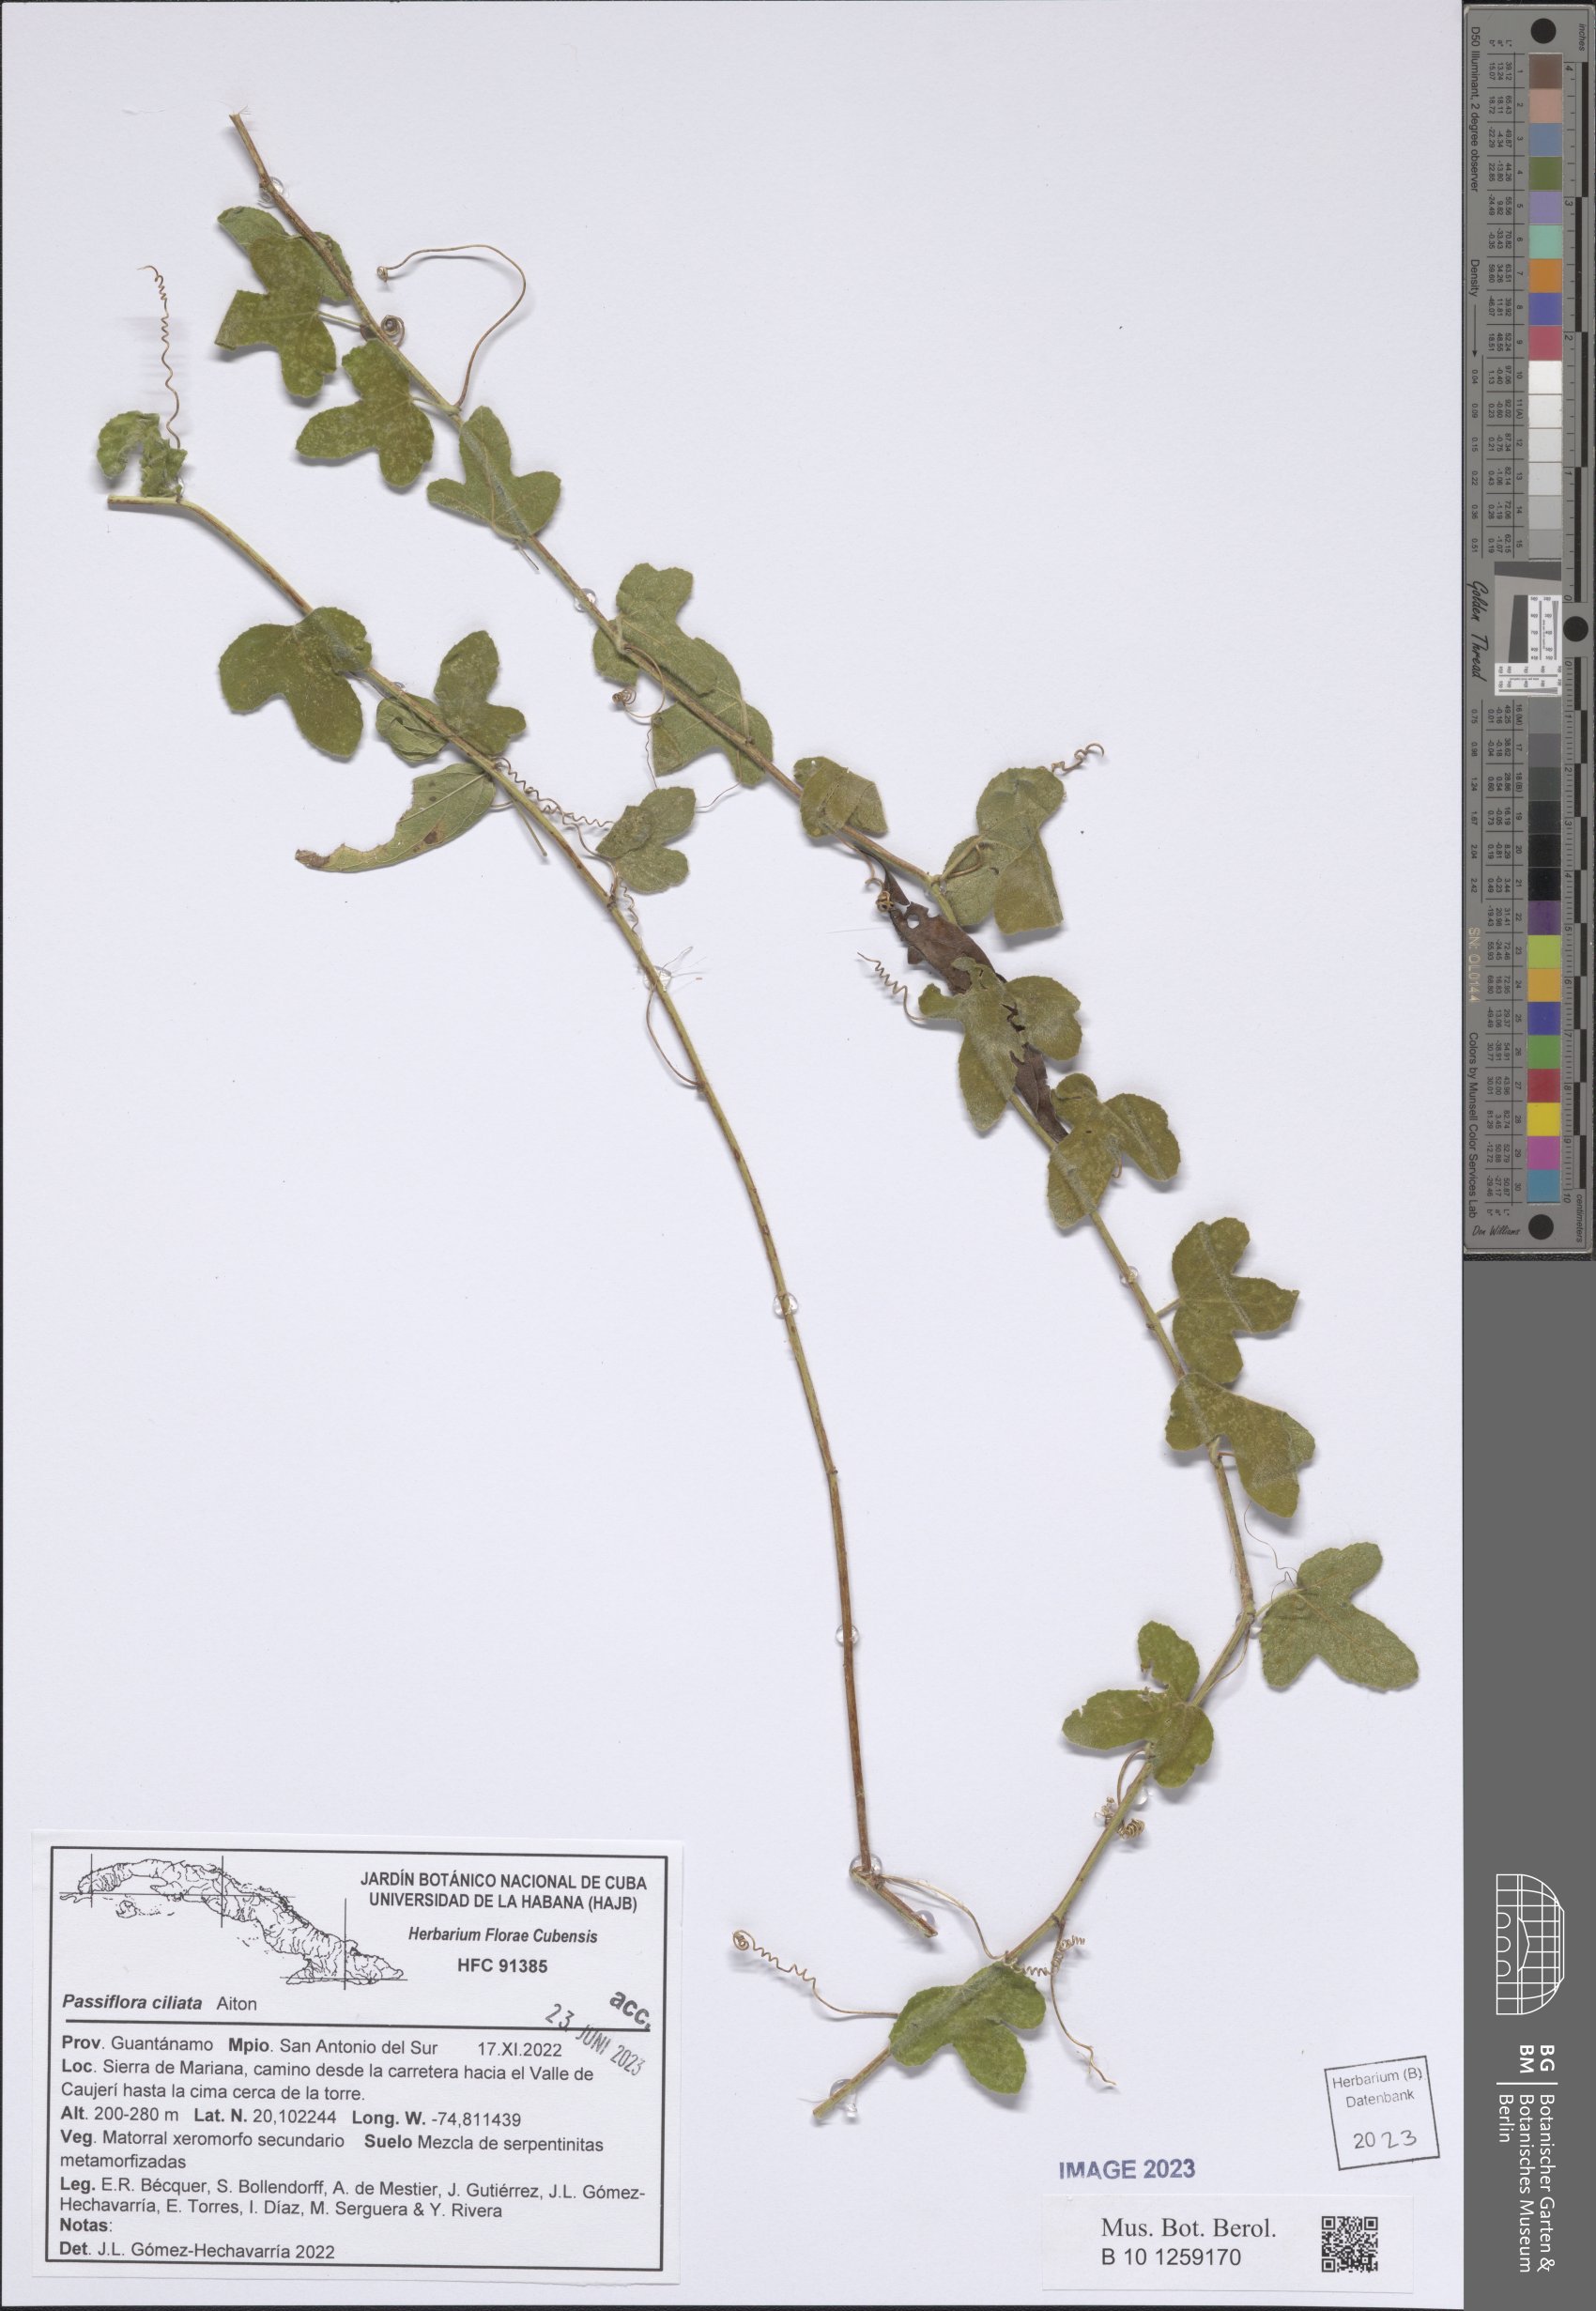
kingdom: Plantae
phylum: Tracheophyta
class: Magnoliopsida
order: Malpighiales
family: Passifloraceae
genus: Passiflora
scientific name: Passiflora ciliata
